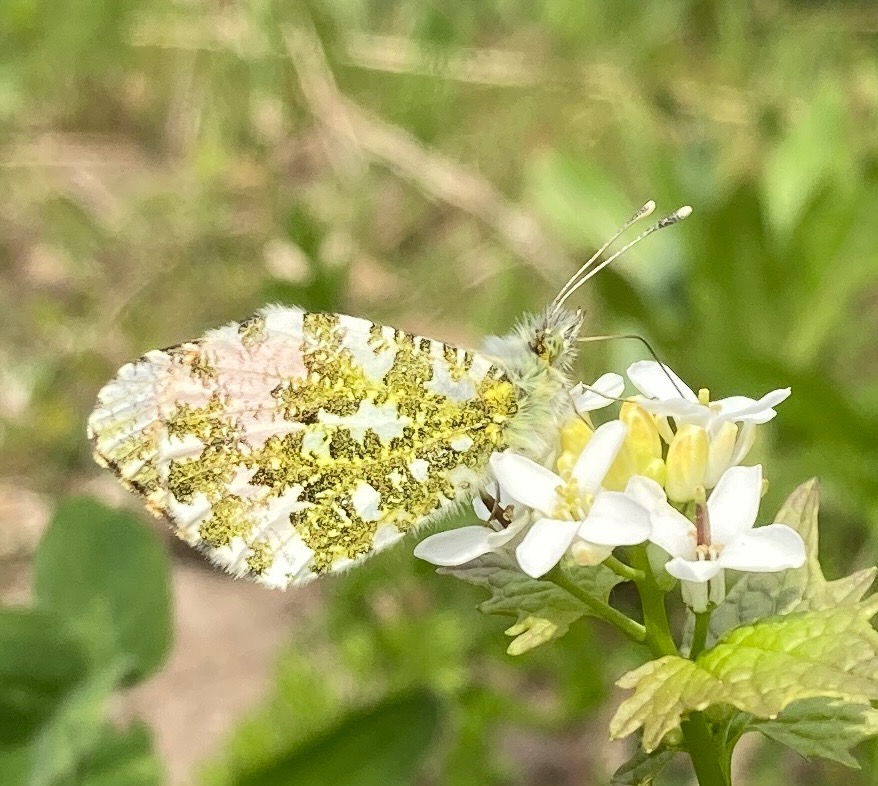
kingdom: Animalia
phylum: Arthropoda
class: Insecta
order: Lepidoptera
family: Pieridae
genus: Anthocharis
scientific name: Anthocharis cardamines
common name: Aurora
